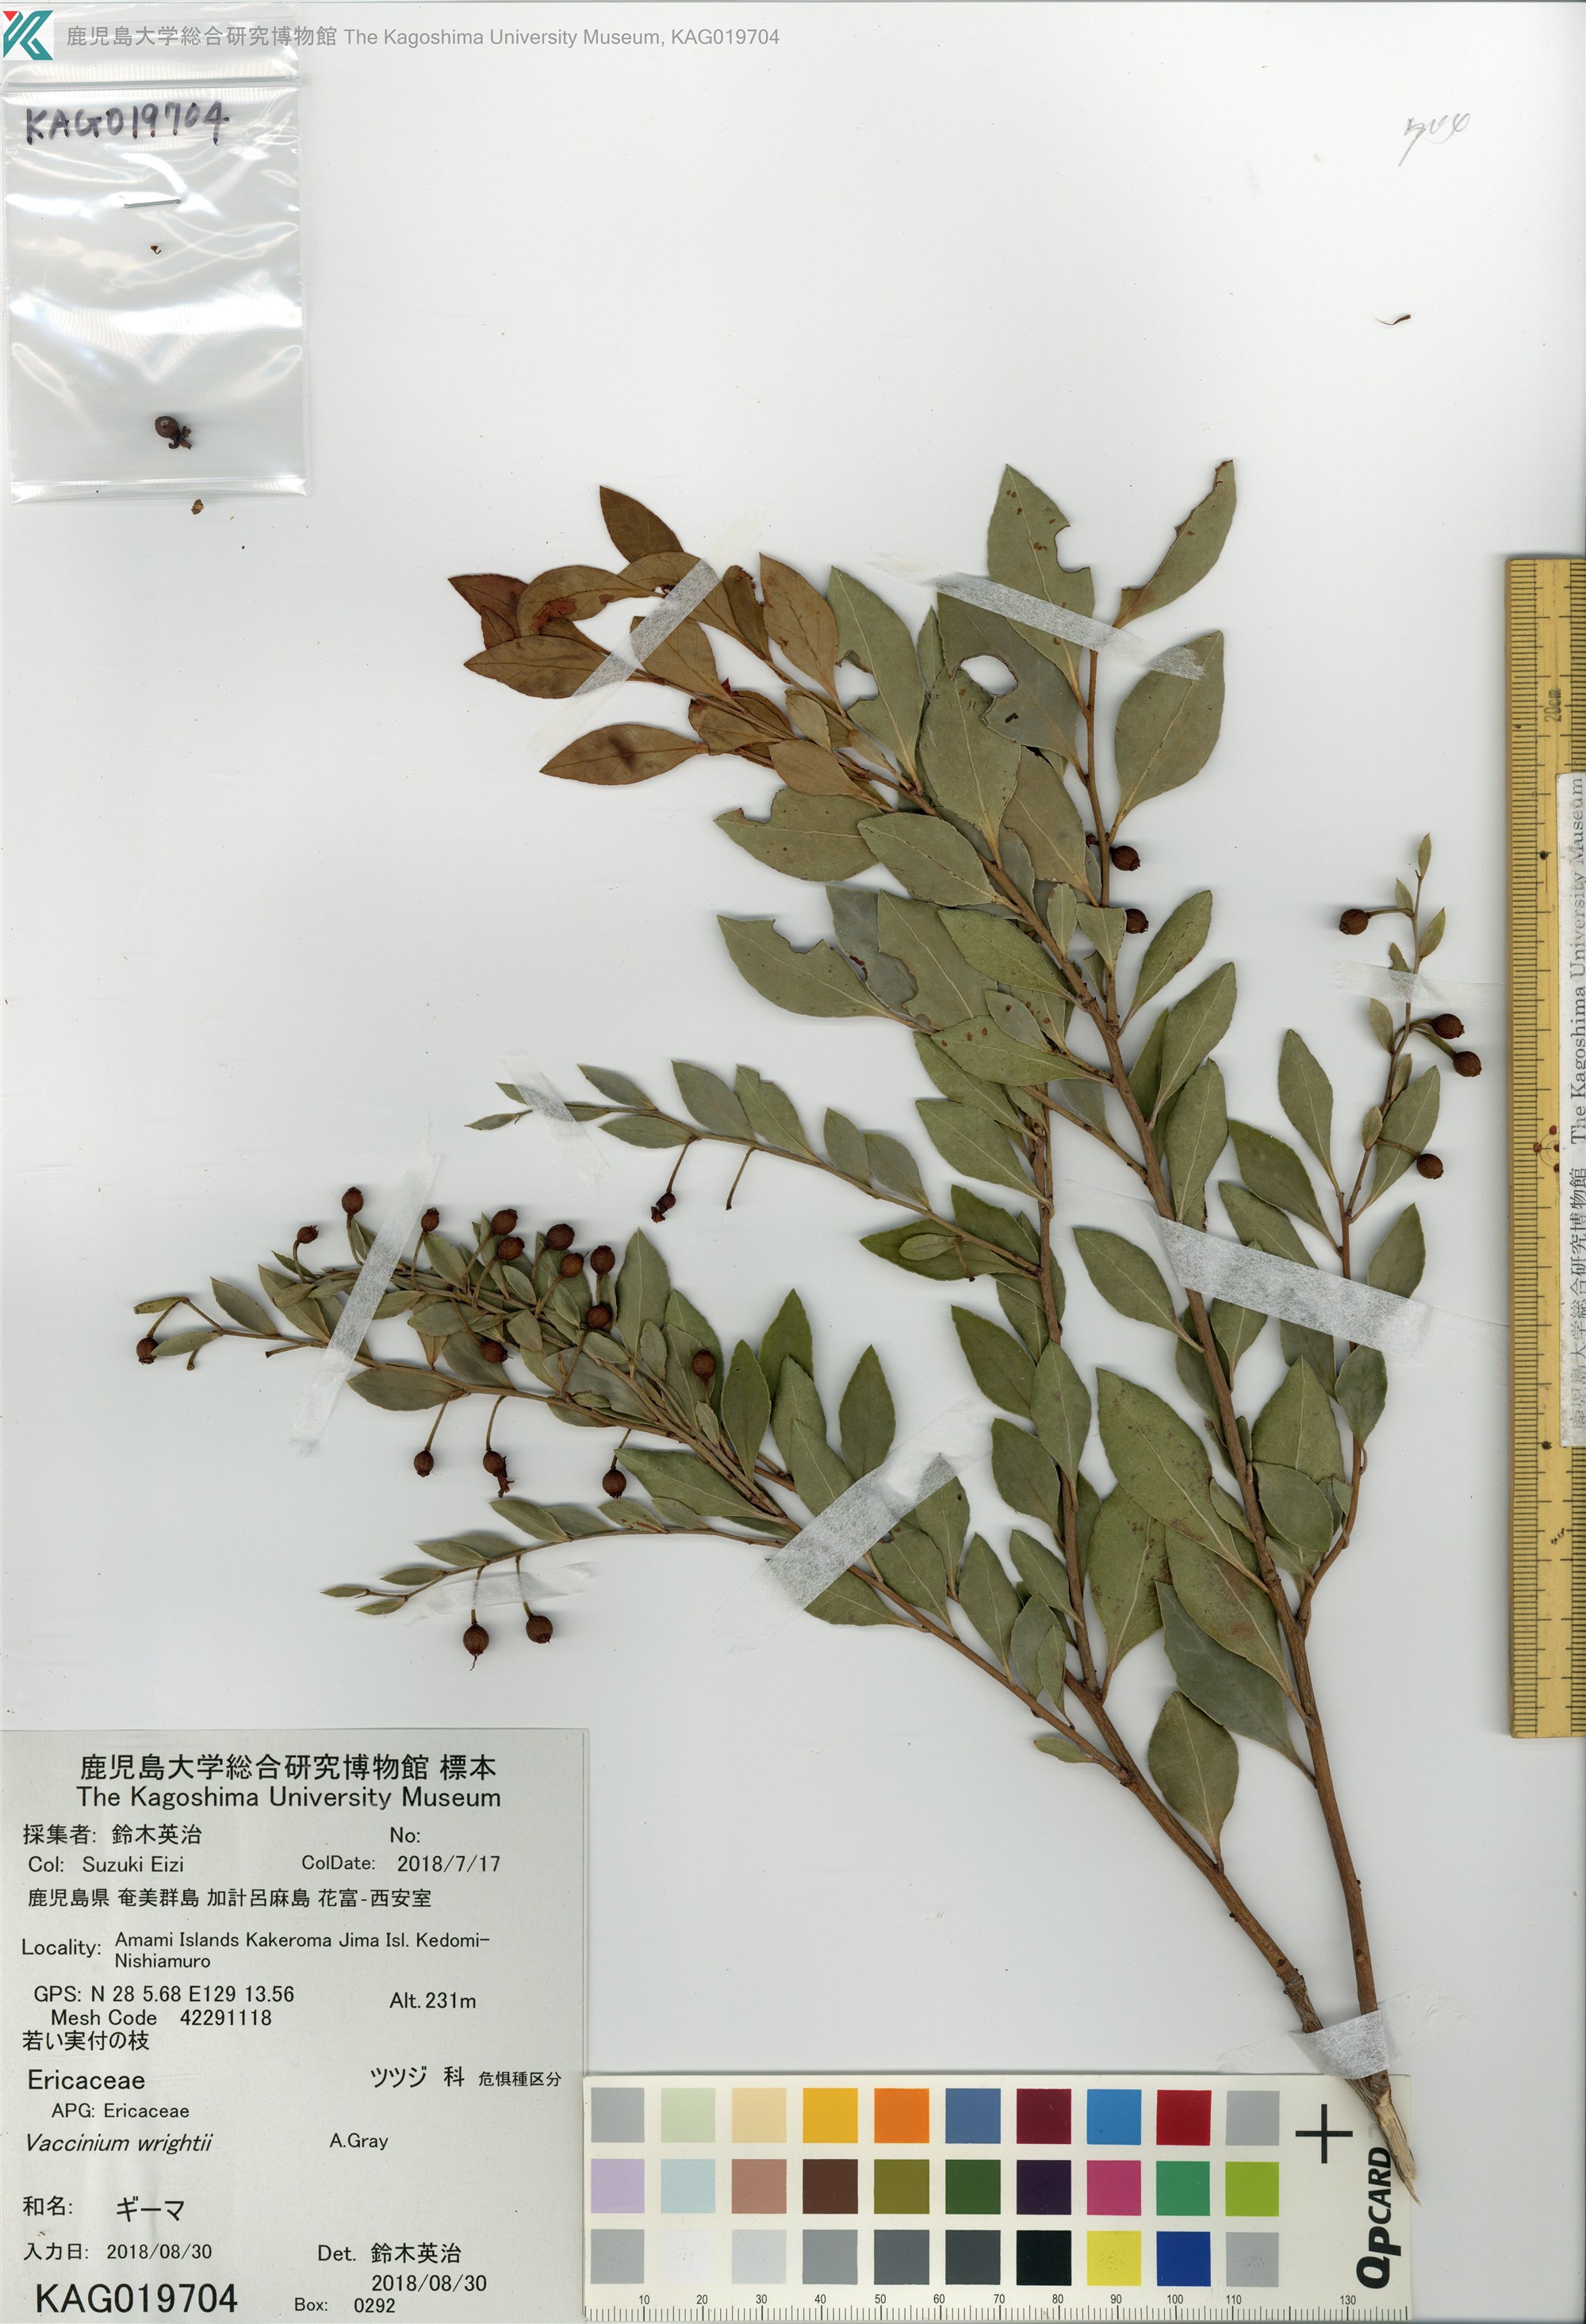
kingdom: Plantae
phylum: Tracheophyta
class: Magnoliopsida
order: Ericales
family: Ericaceae
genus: Vaccinium
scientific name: Vaccinium wrightii
